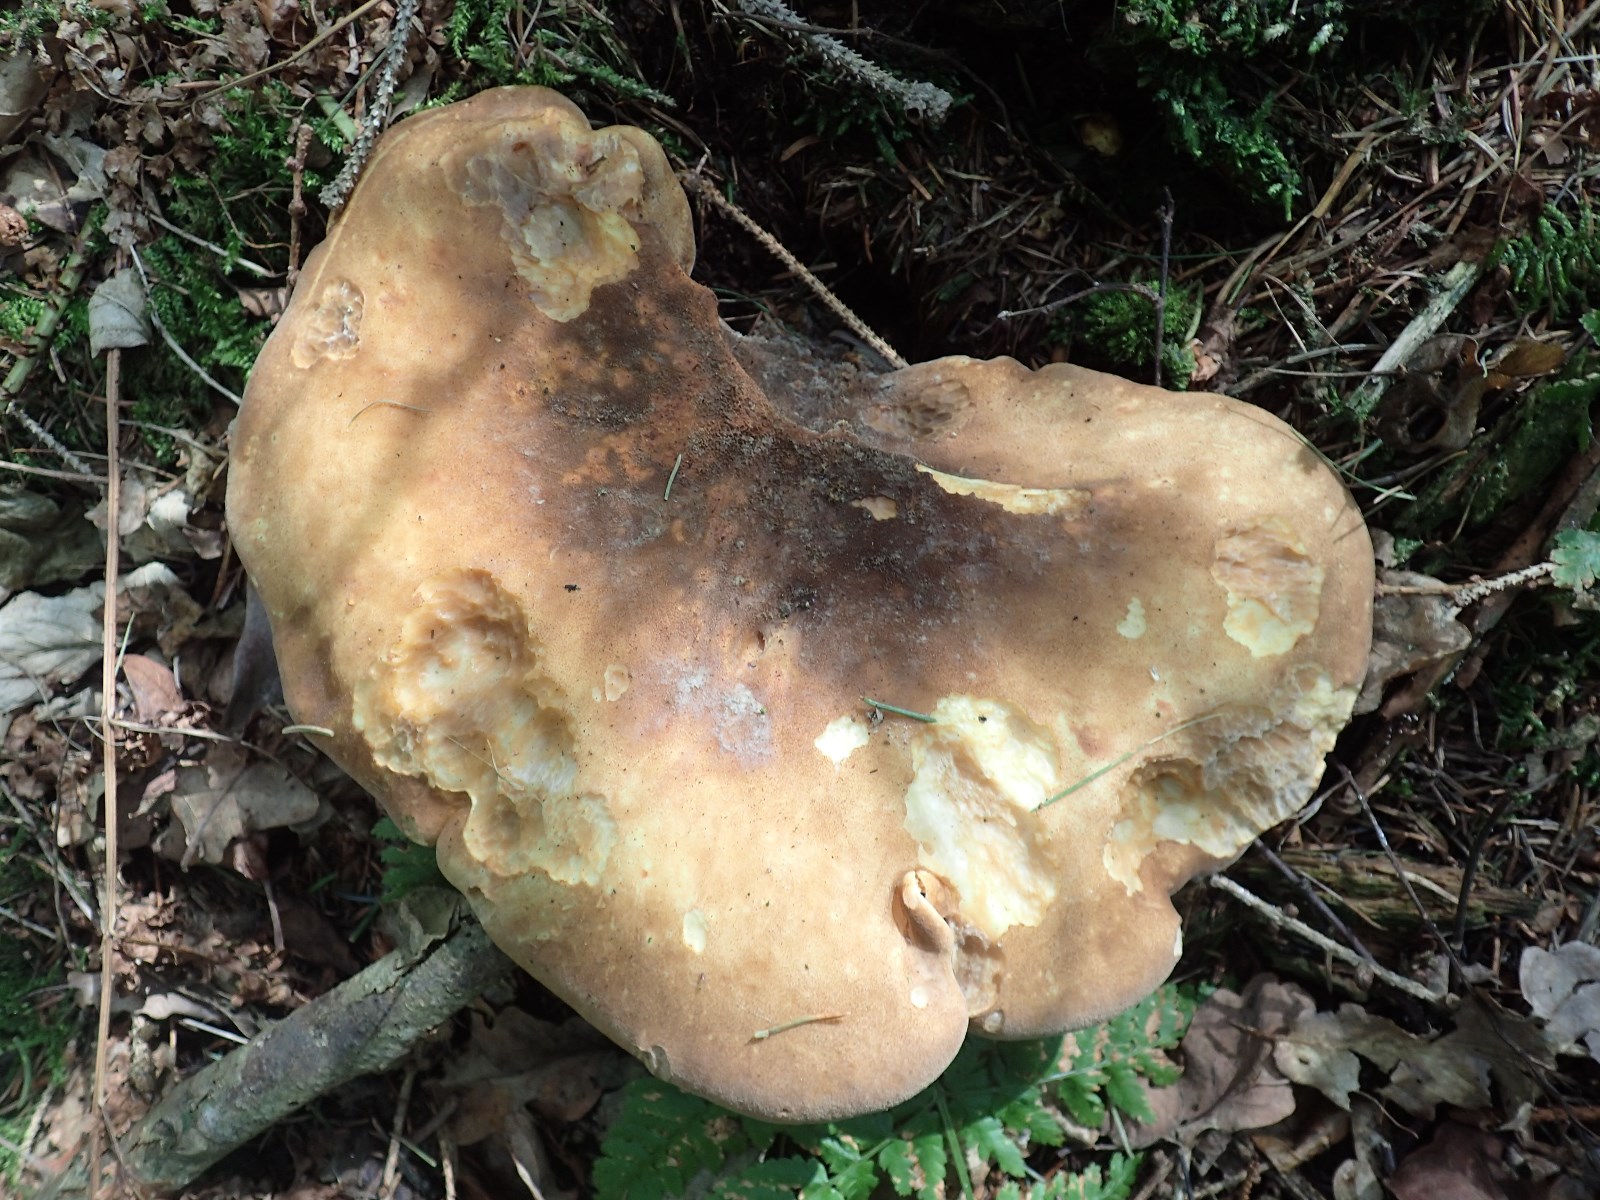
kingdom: Fungi
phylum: Basidiomycota
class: Agaricomycetes
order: Boletales
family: Tapinellaceae
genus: Tapinella
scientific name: Tapinella atrotomentosa
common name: sortfiltet viftesvamp
